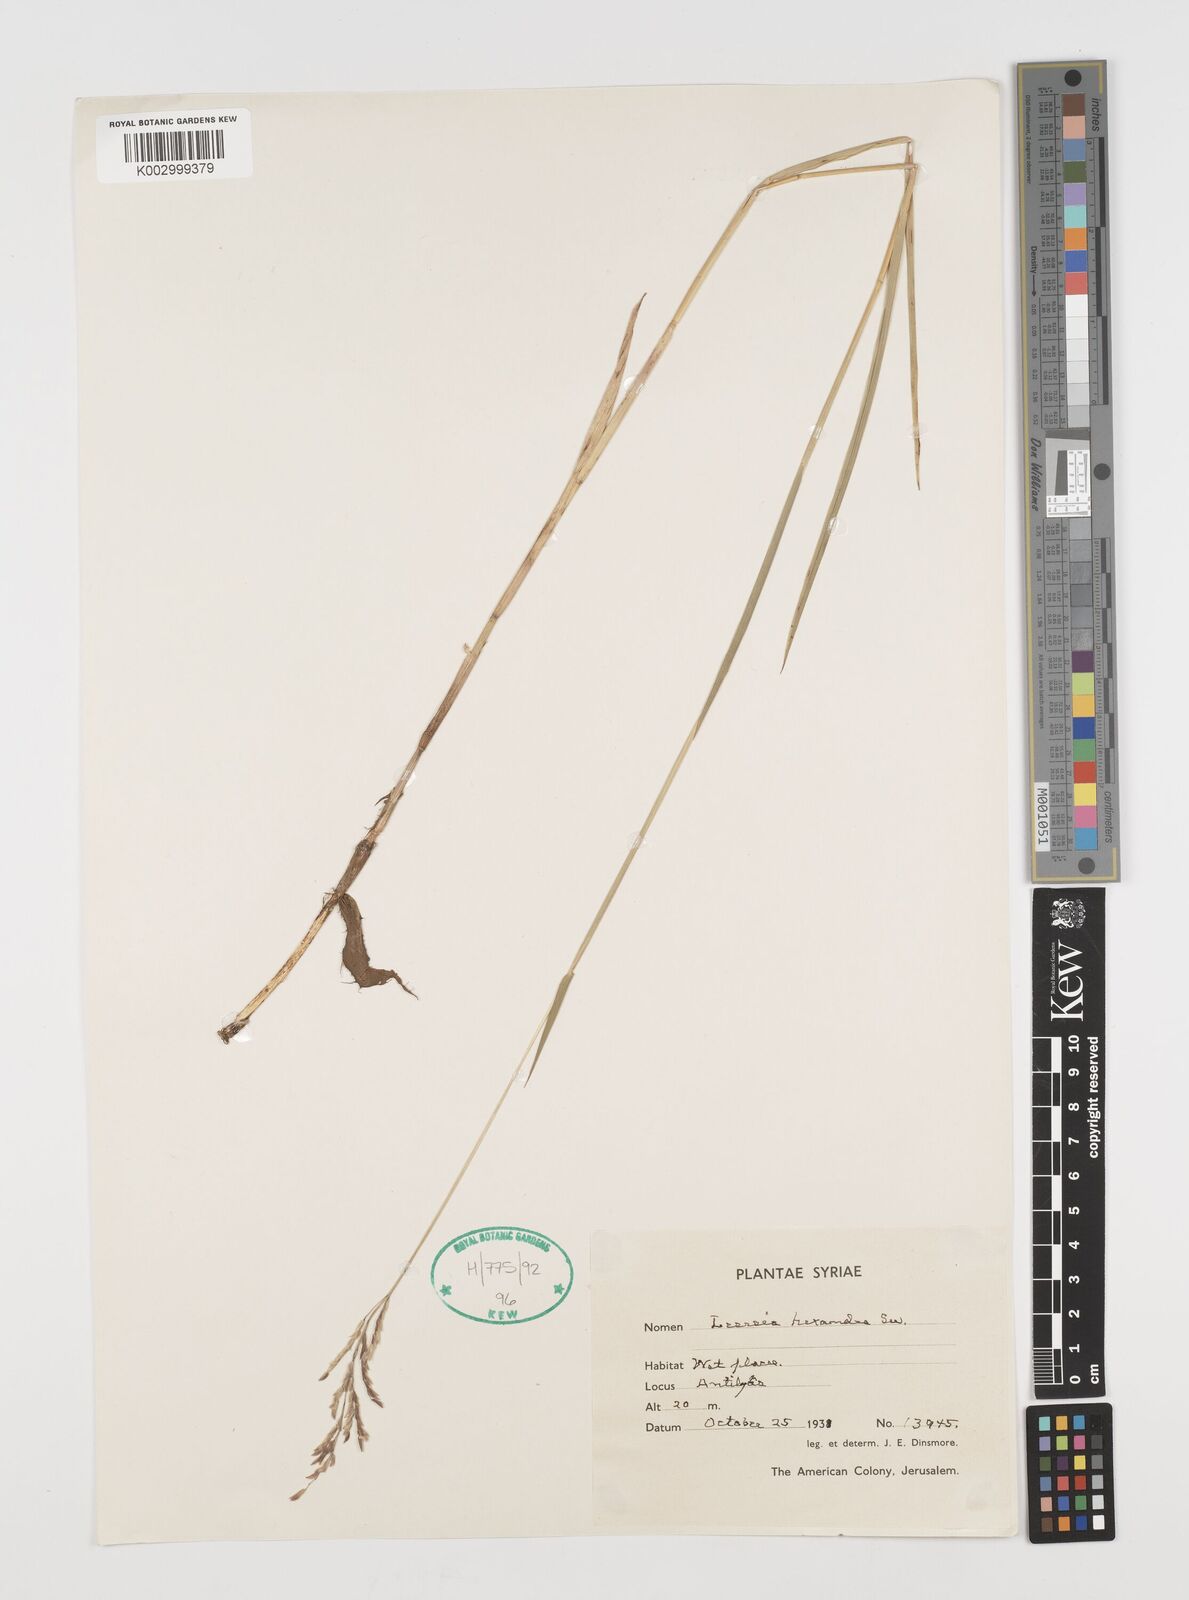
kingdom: Plantae
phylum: Tracheophyta
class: Liliopsida
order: Poales
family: Poaceae
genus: Leersia
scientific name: Leersia hexandra
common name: Southern cut grass
